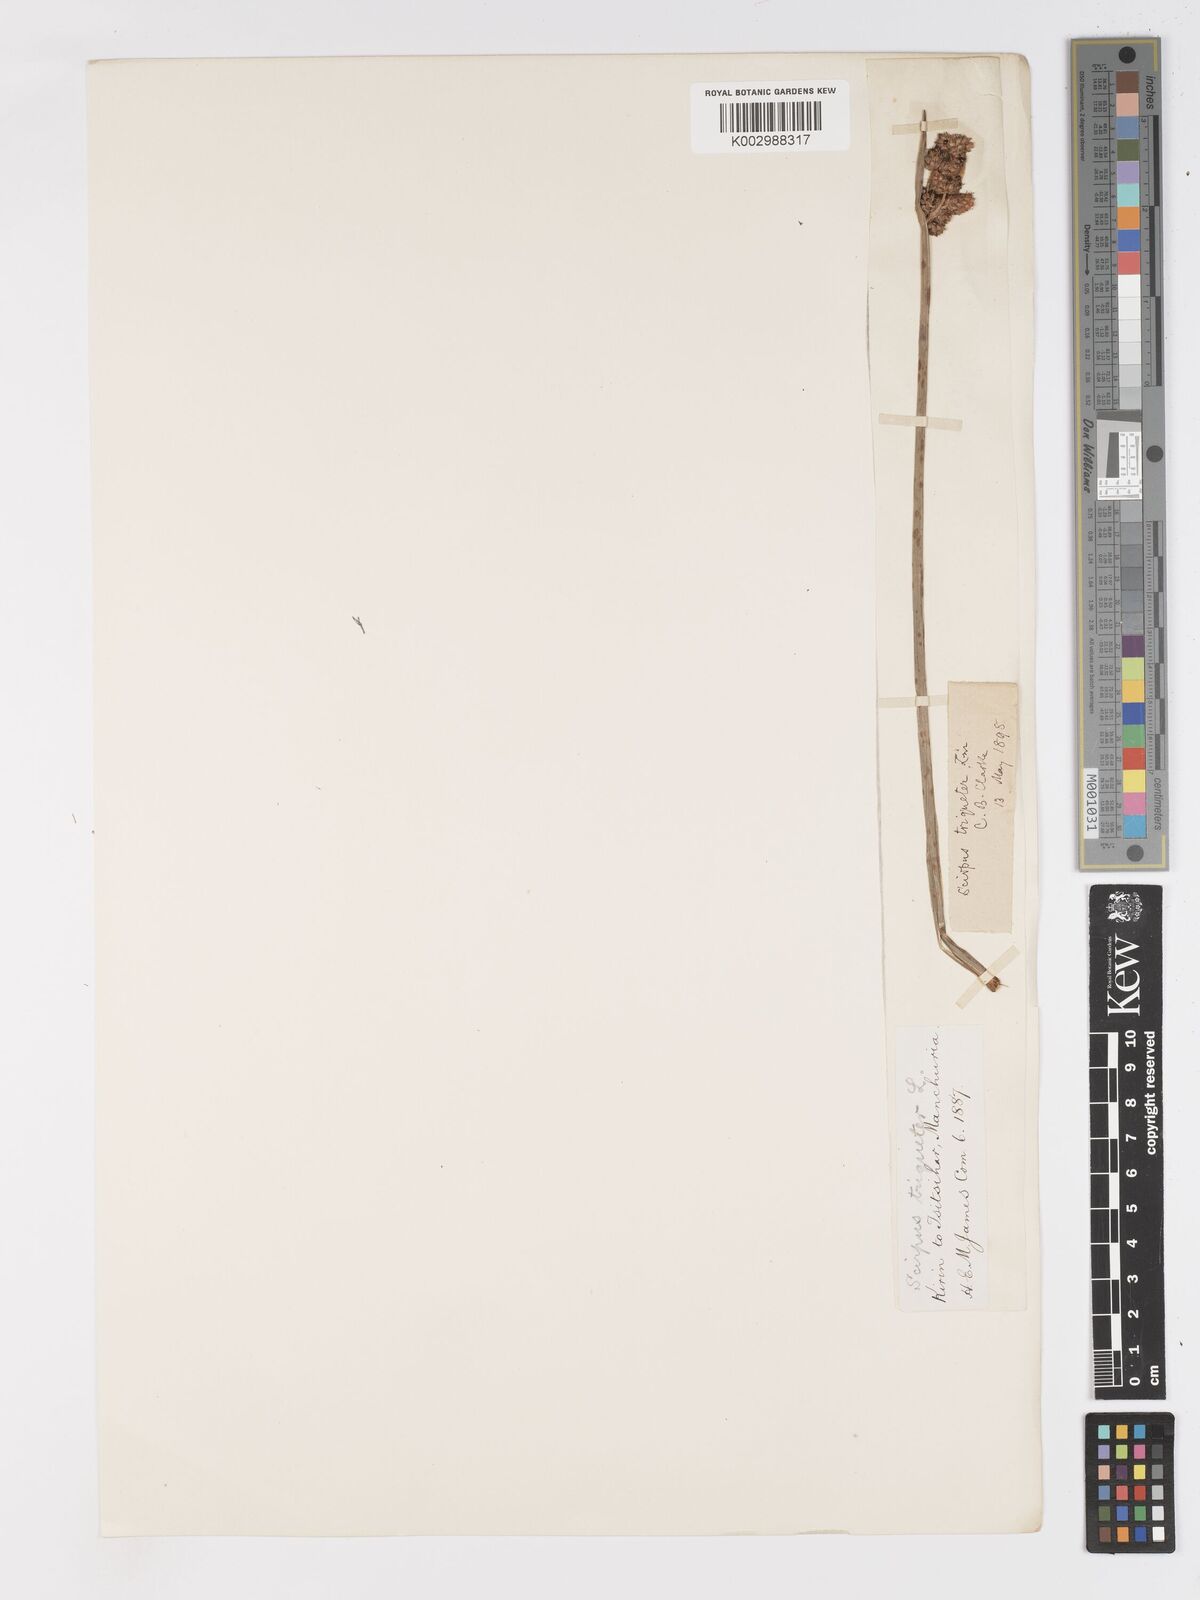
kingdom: Plantae
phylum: Tracheophyta
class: Liliopsida
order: Poales
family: Cyperaceae
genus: Schoenoplectus
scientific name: Schoenoplectus triqueter
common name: Triangular club-rush
